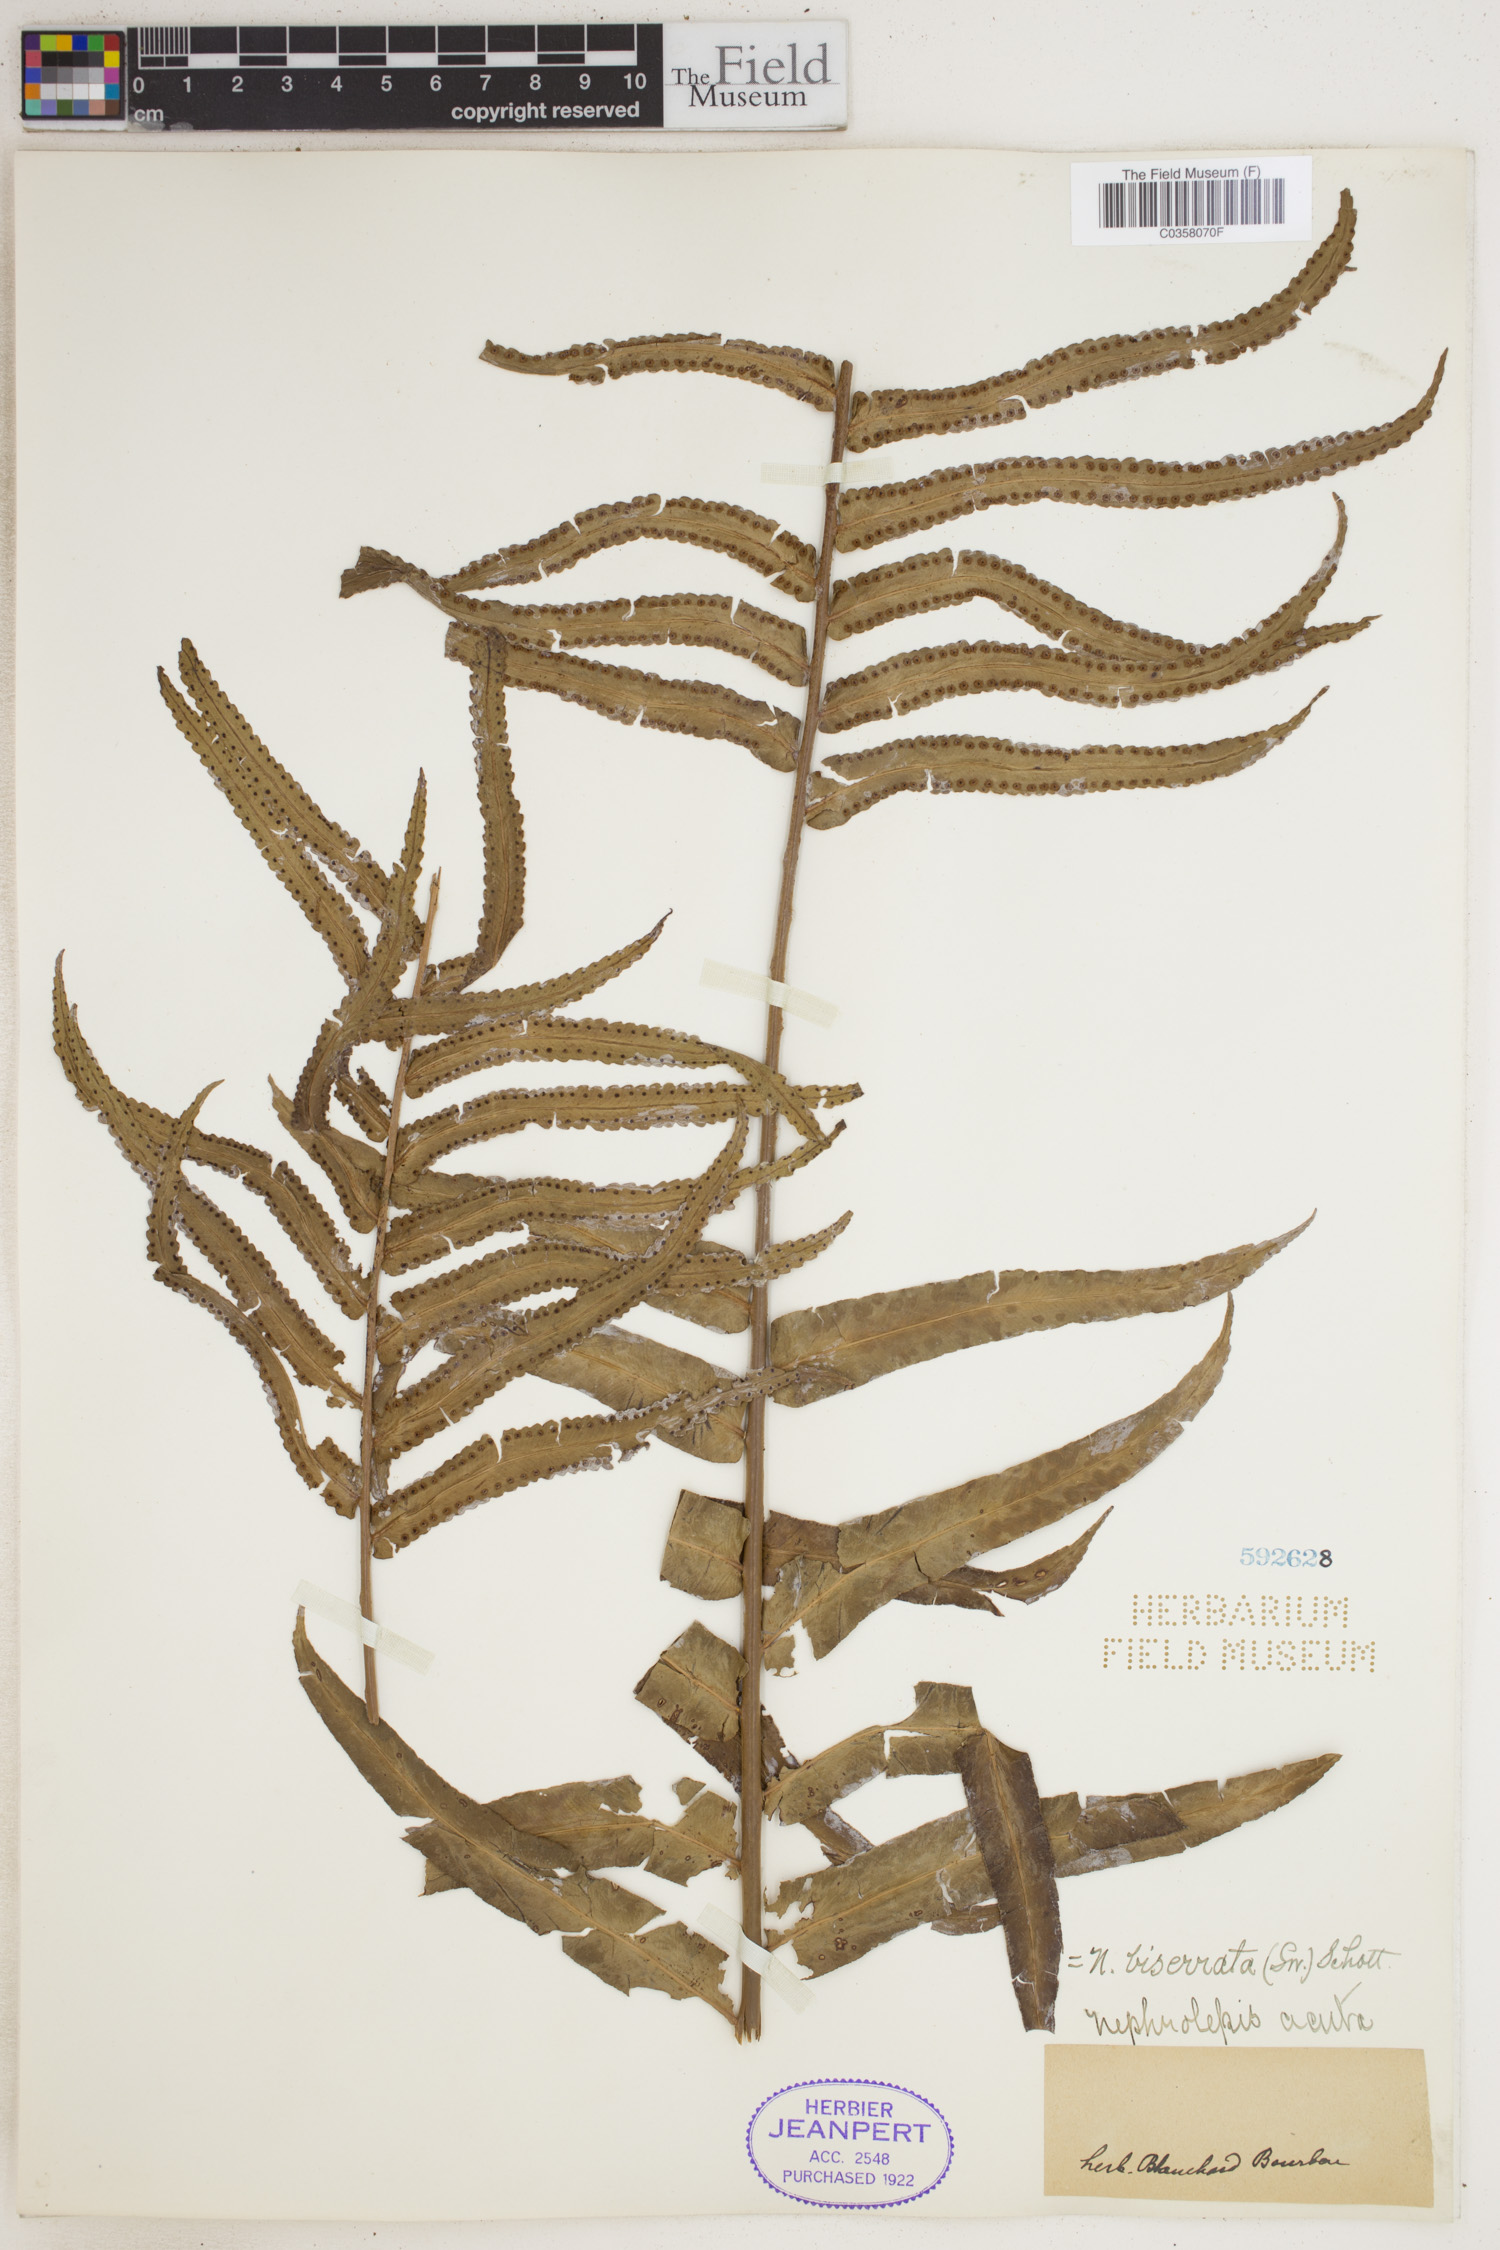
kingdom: Plantae
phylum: Tracheophyta
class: Polypodiopsida
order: Polypodiales
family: Nephrolepidaceae
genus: Nephrolepis
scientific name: Nephrolepis biserrata
